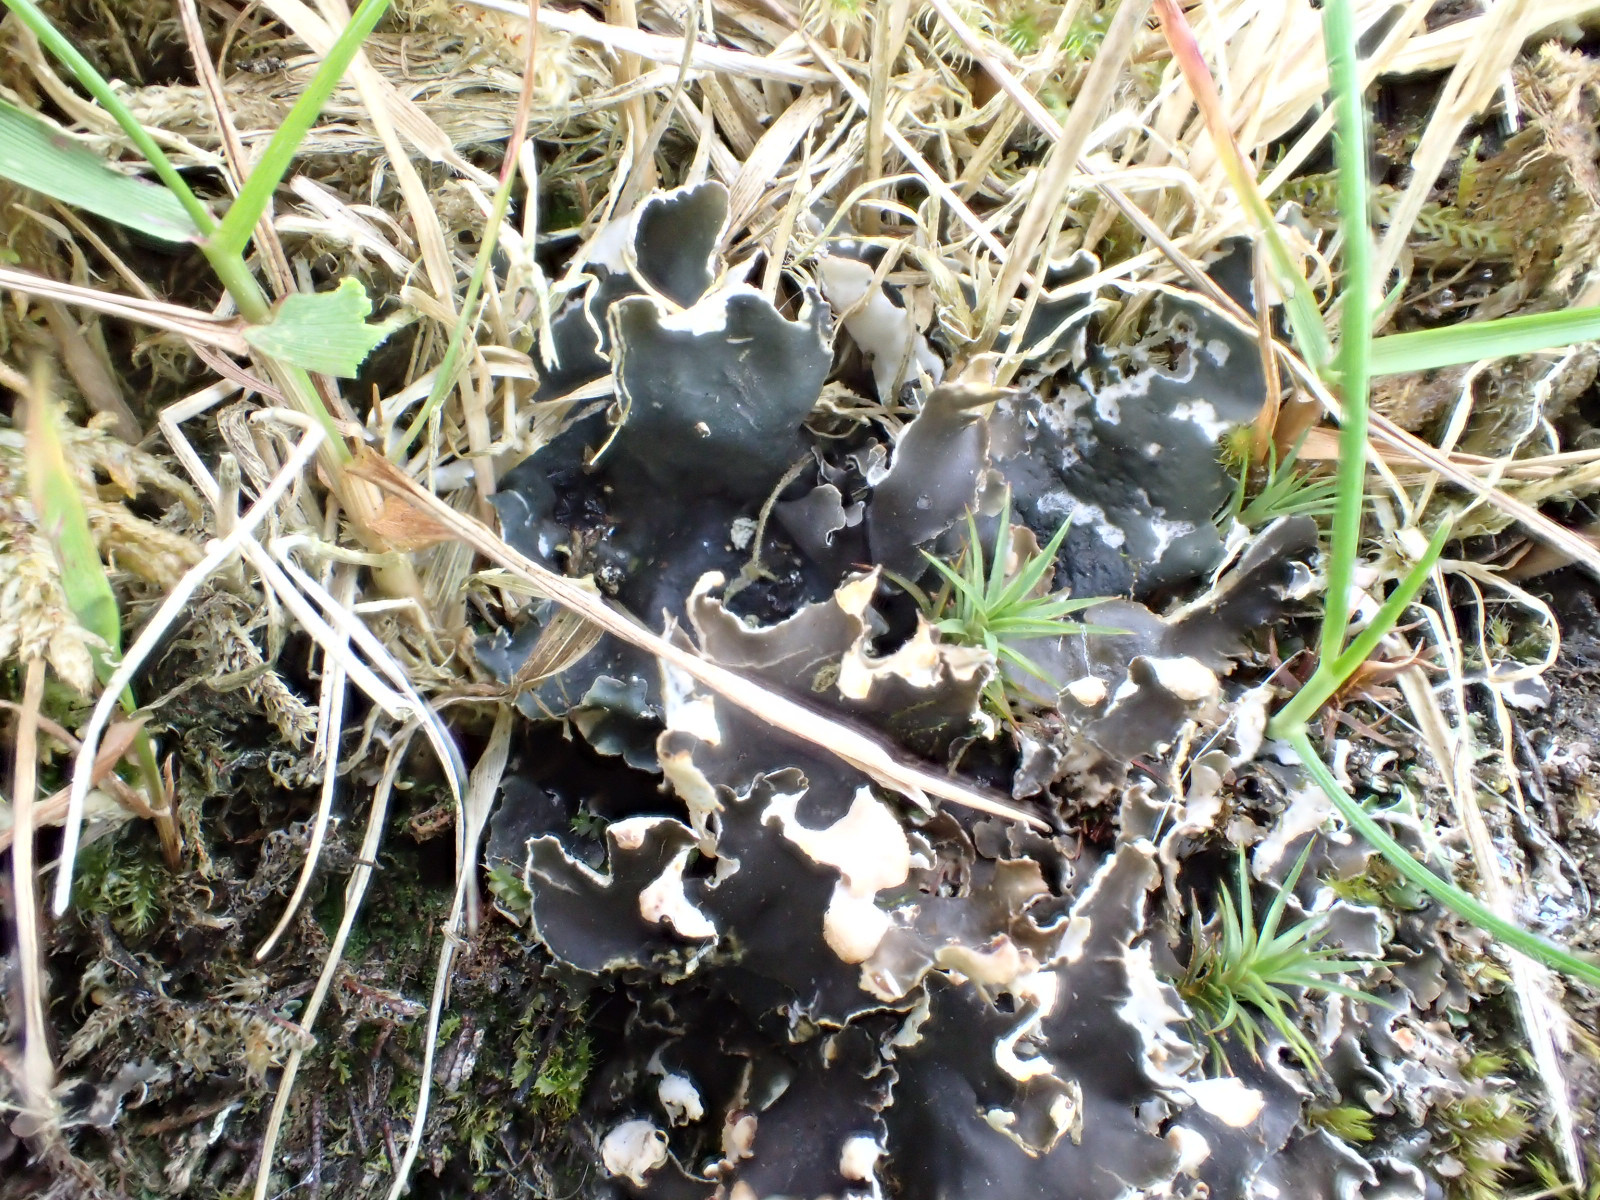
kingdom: Fungi
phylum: Ascomycota
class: Lecanoromycetes
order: Peltigerales
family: Peltigeraceae
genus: Peltigera
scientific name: Peltigera hymenina
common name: hinde-skjoldlav
